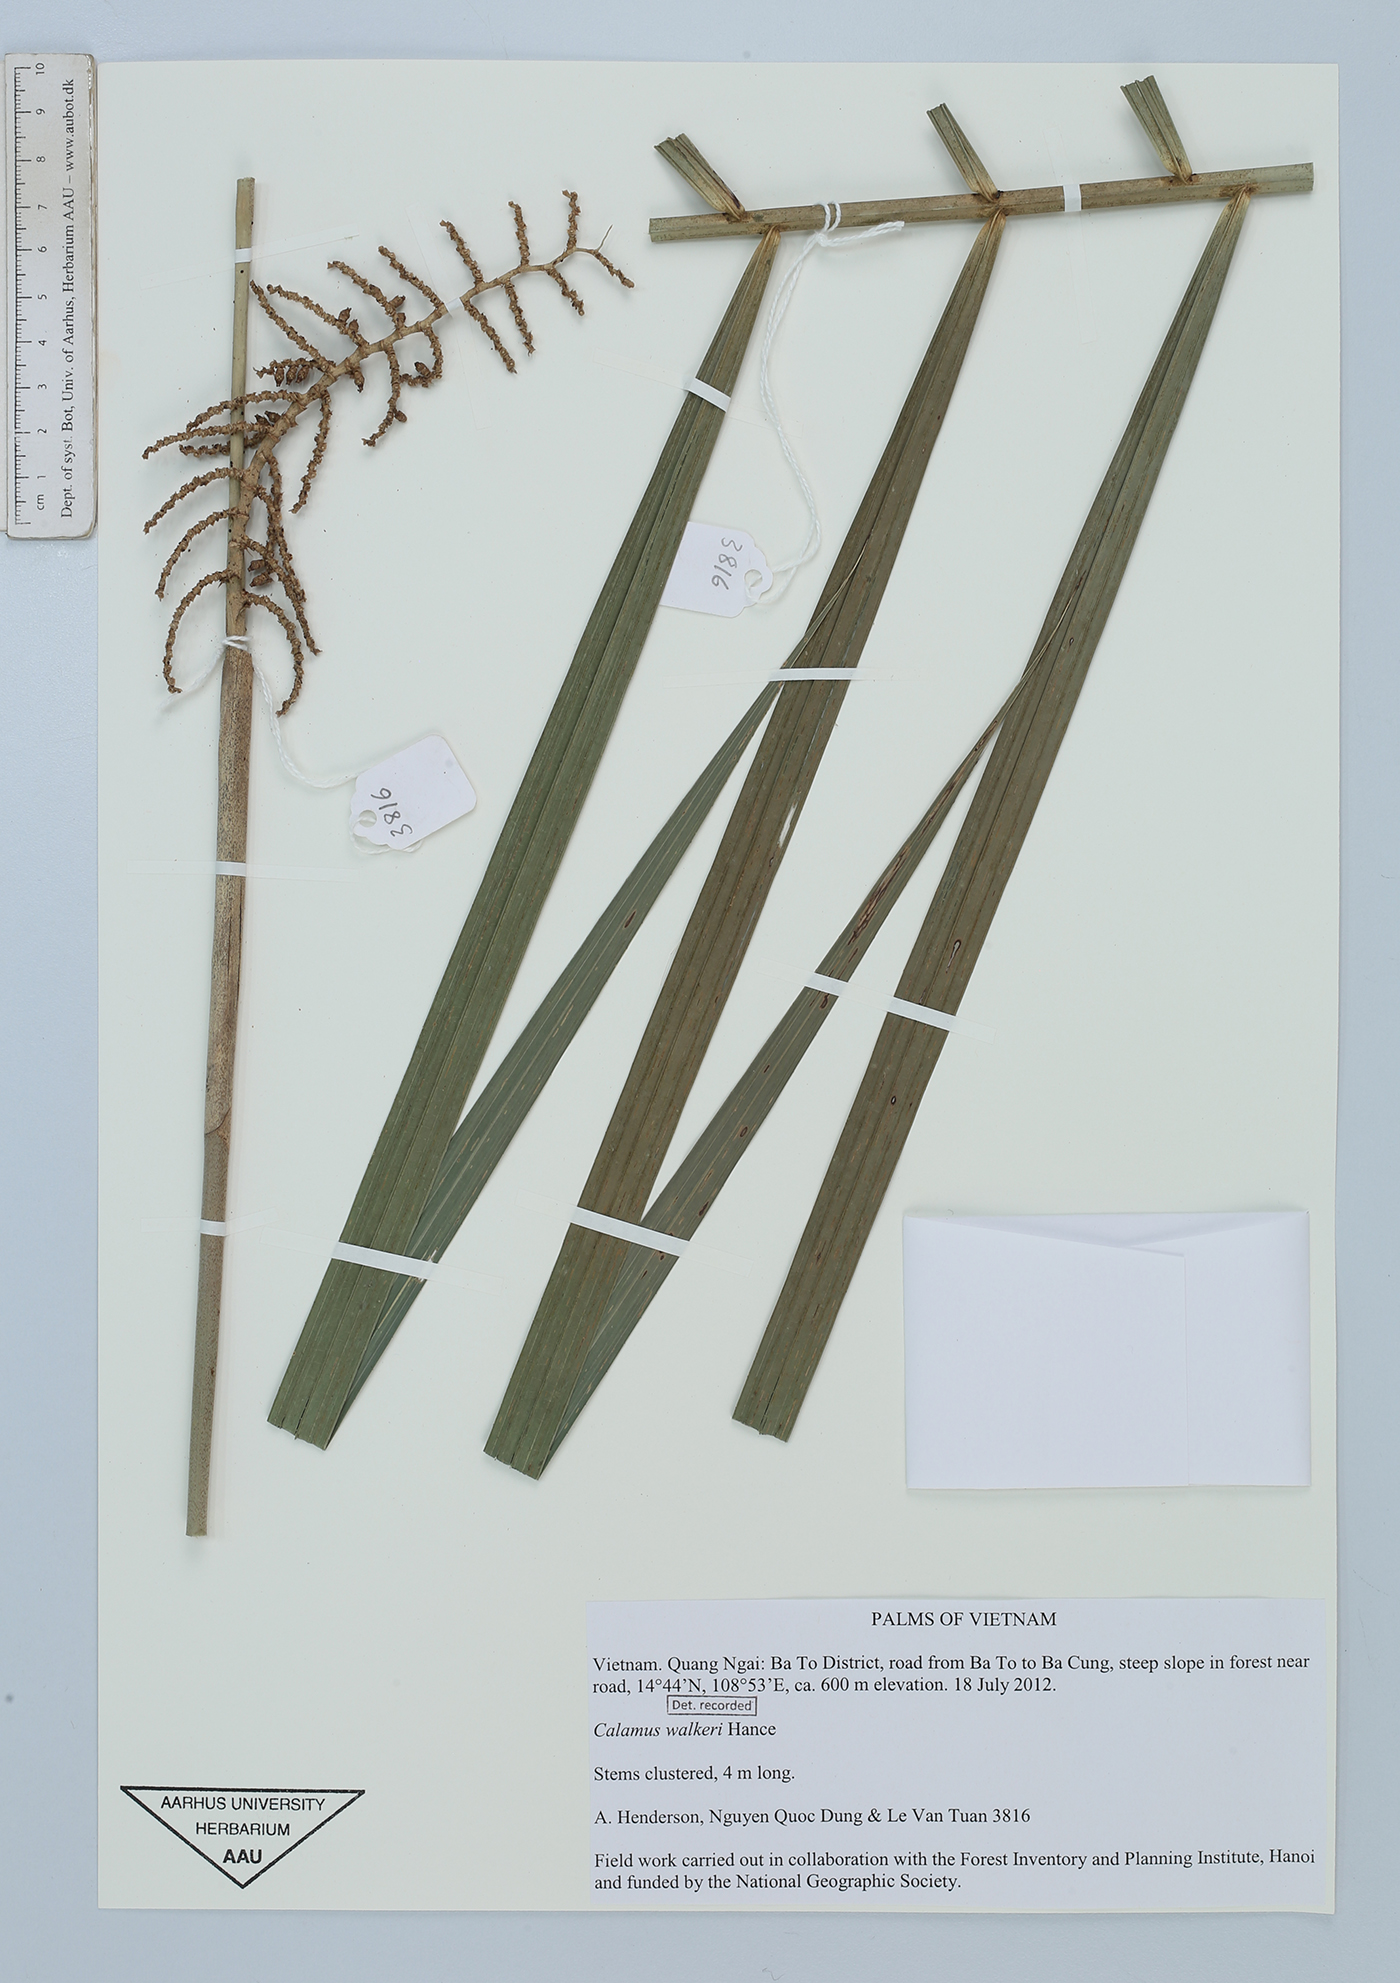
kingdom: Plantae
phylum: Tracheophyta
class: Liliopsida
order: Arecales
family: Arecaceae
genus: Calamus
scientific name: Calamus walkeri
